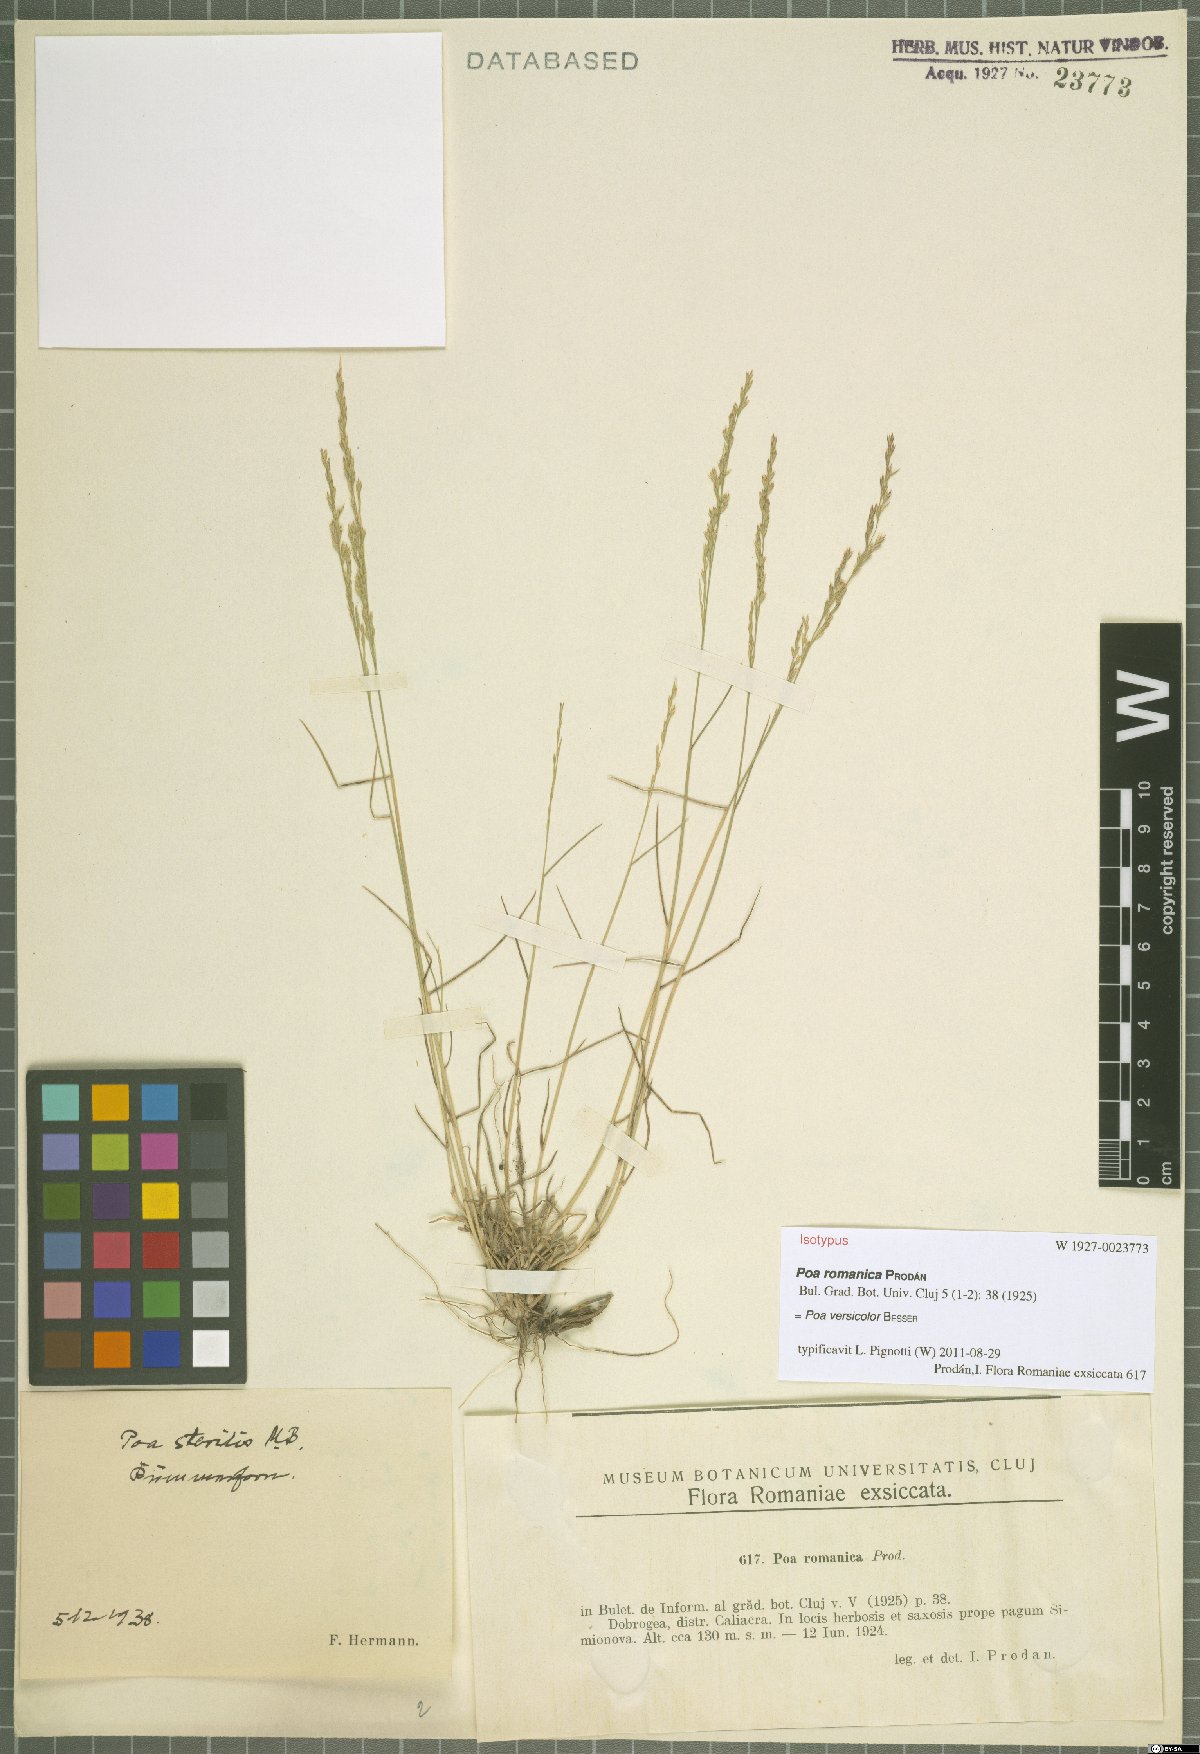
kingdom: Plantae
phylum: Tracheophyta
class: Liliopsida
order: Poales
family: Poaceae
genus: Poa
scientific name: Poa versicolor
